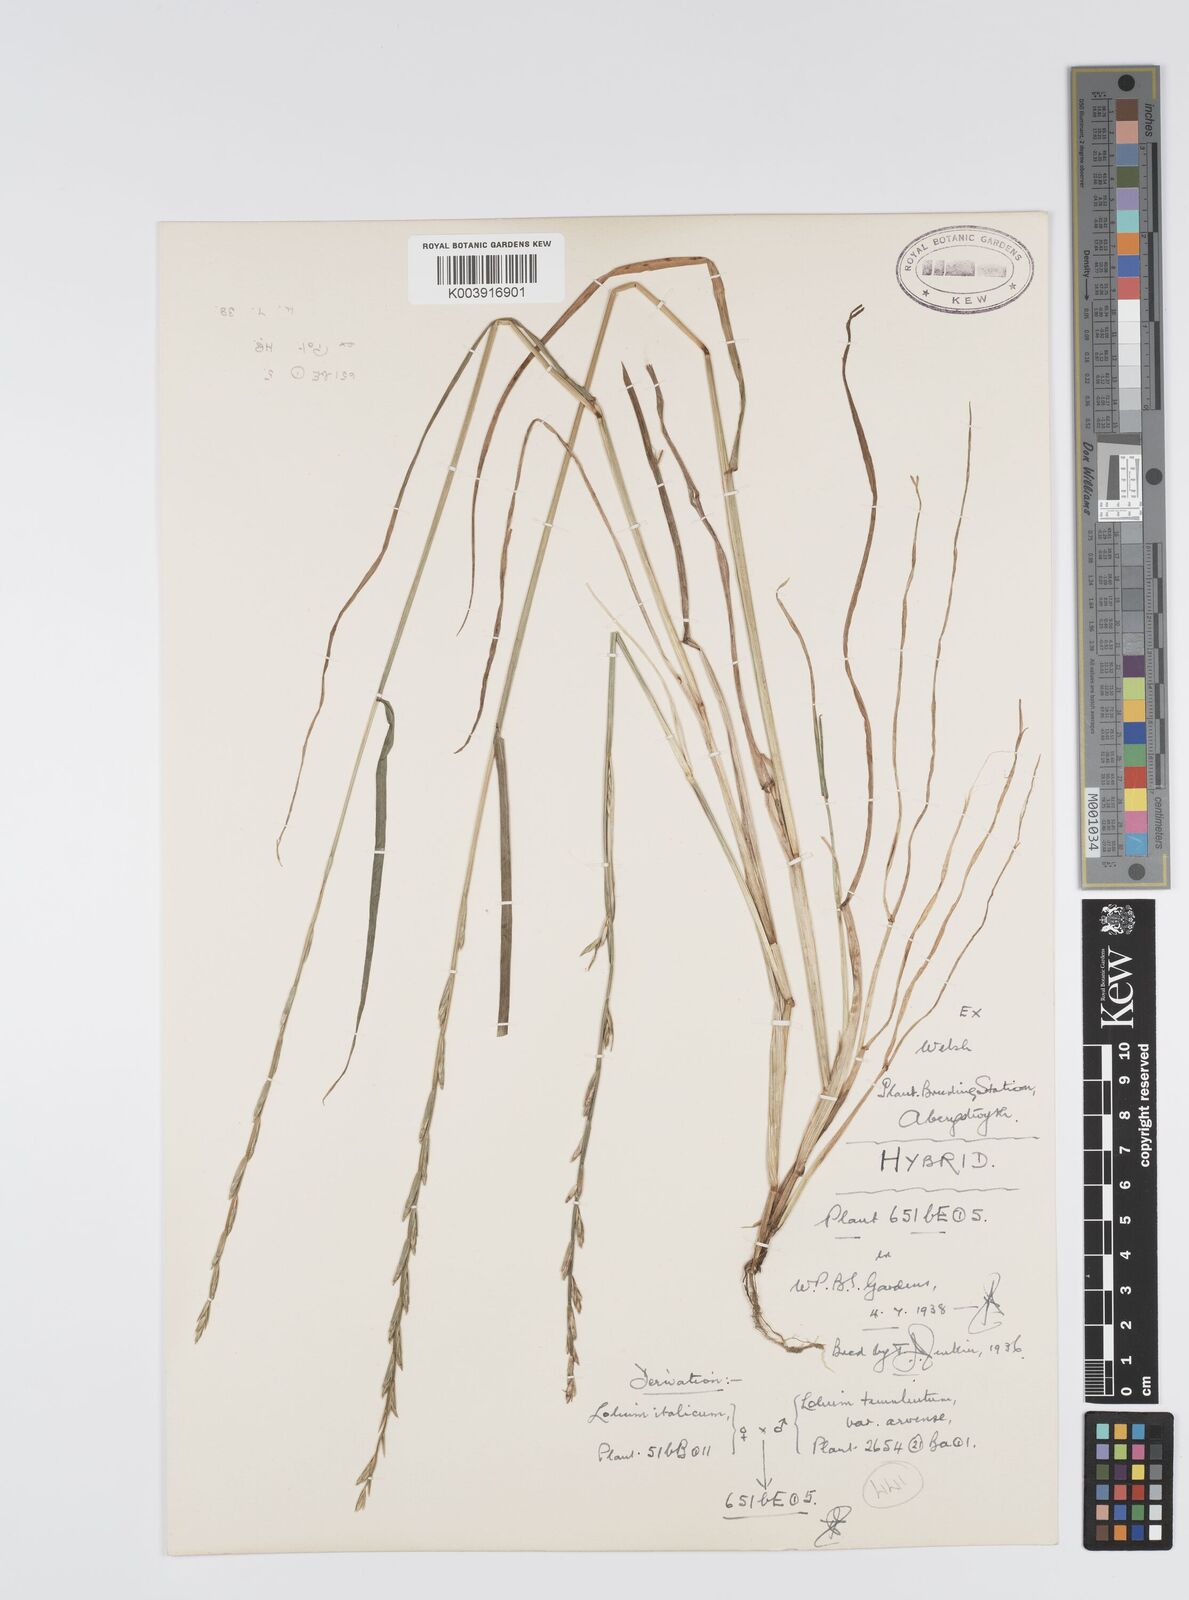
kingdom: Plantae
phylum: Tracheophyta
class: Liliopsida
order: Poales
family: Poaceae
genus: Lolium
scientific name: Lolium multiflorum
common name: Annual ryegrass
